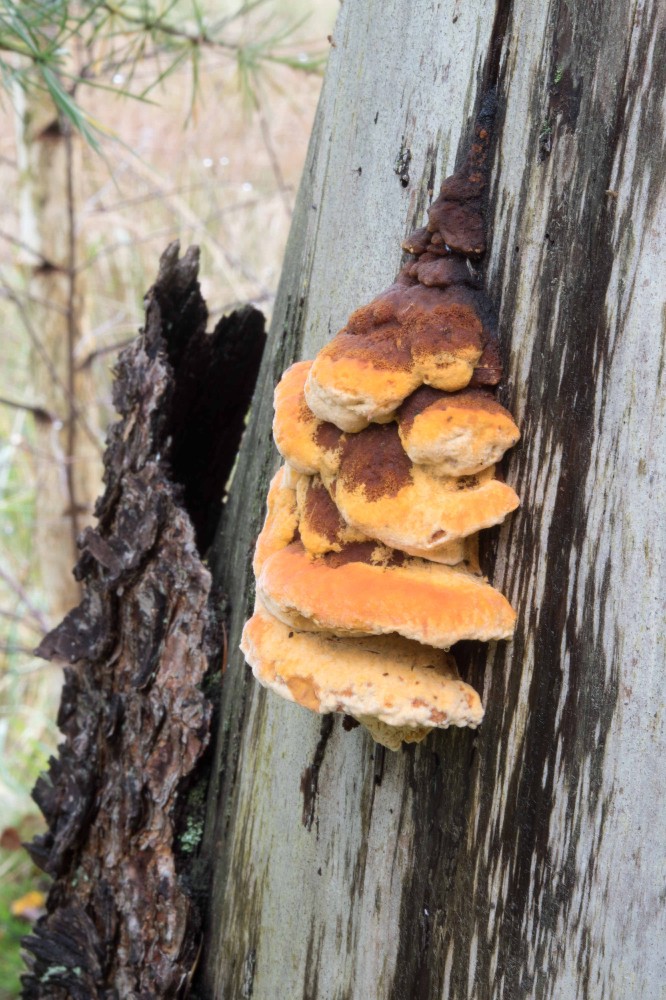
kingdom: Fungi
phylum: Basidiomycota
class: Agaricomycetes
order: Gloeophyllales
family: Gloeophyllaceae
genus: Gloeophyllum
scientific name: Gloeophyllum odoratum
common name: duftende korkhat
